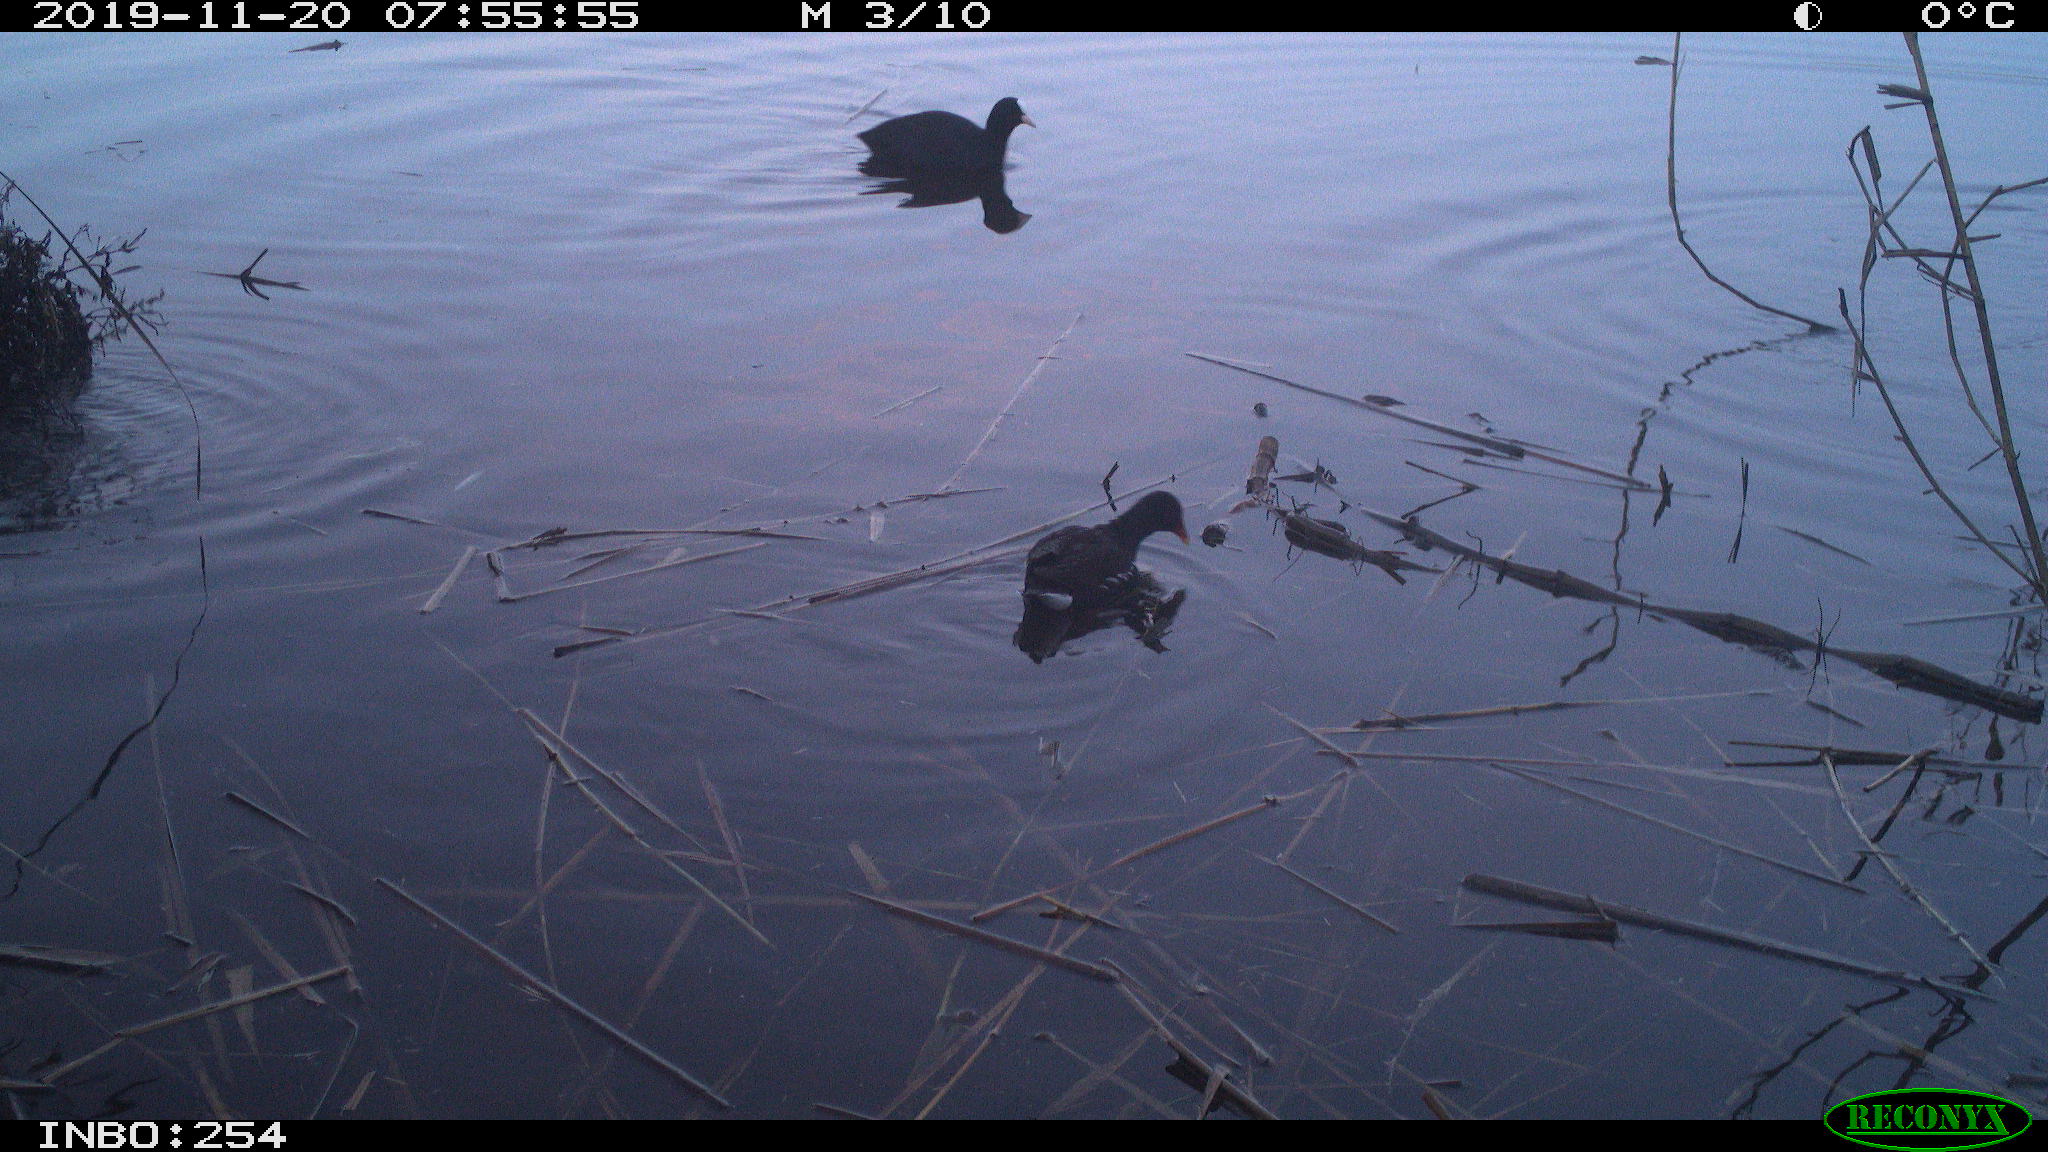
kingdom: Animalia
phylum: Chordata
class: Aves
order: Gruiformes
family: Rallidae
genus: Fulica
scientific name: Fulica atra
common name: Eurasian coot
